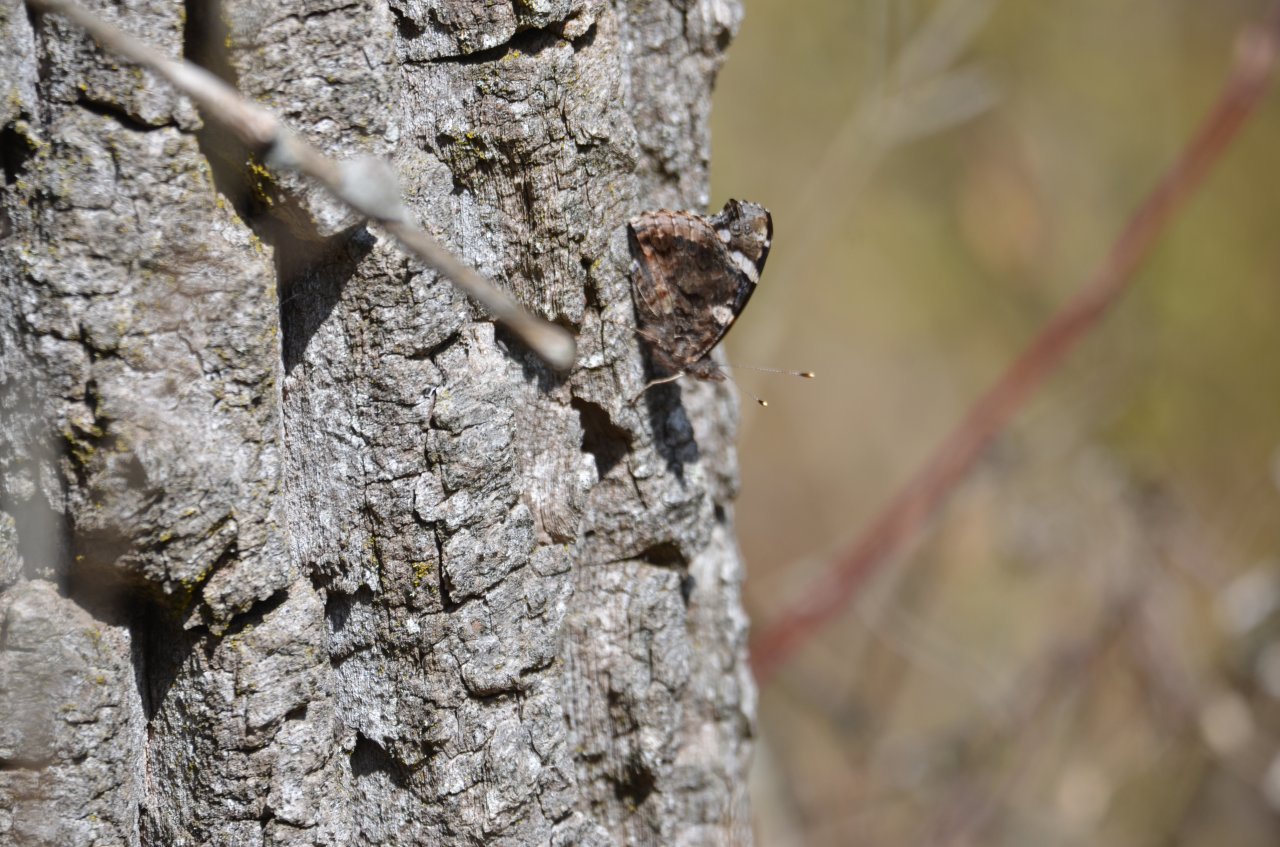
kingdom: Animalia
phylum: Arthropoda
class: Insecta
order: Lepidoptera
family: Nymphalidae
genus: Vanessa
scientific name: Vanessa atalanta
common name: Red Admiral
